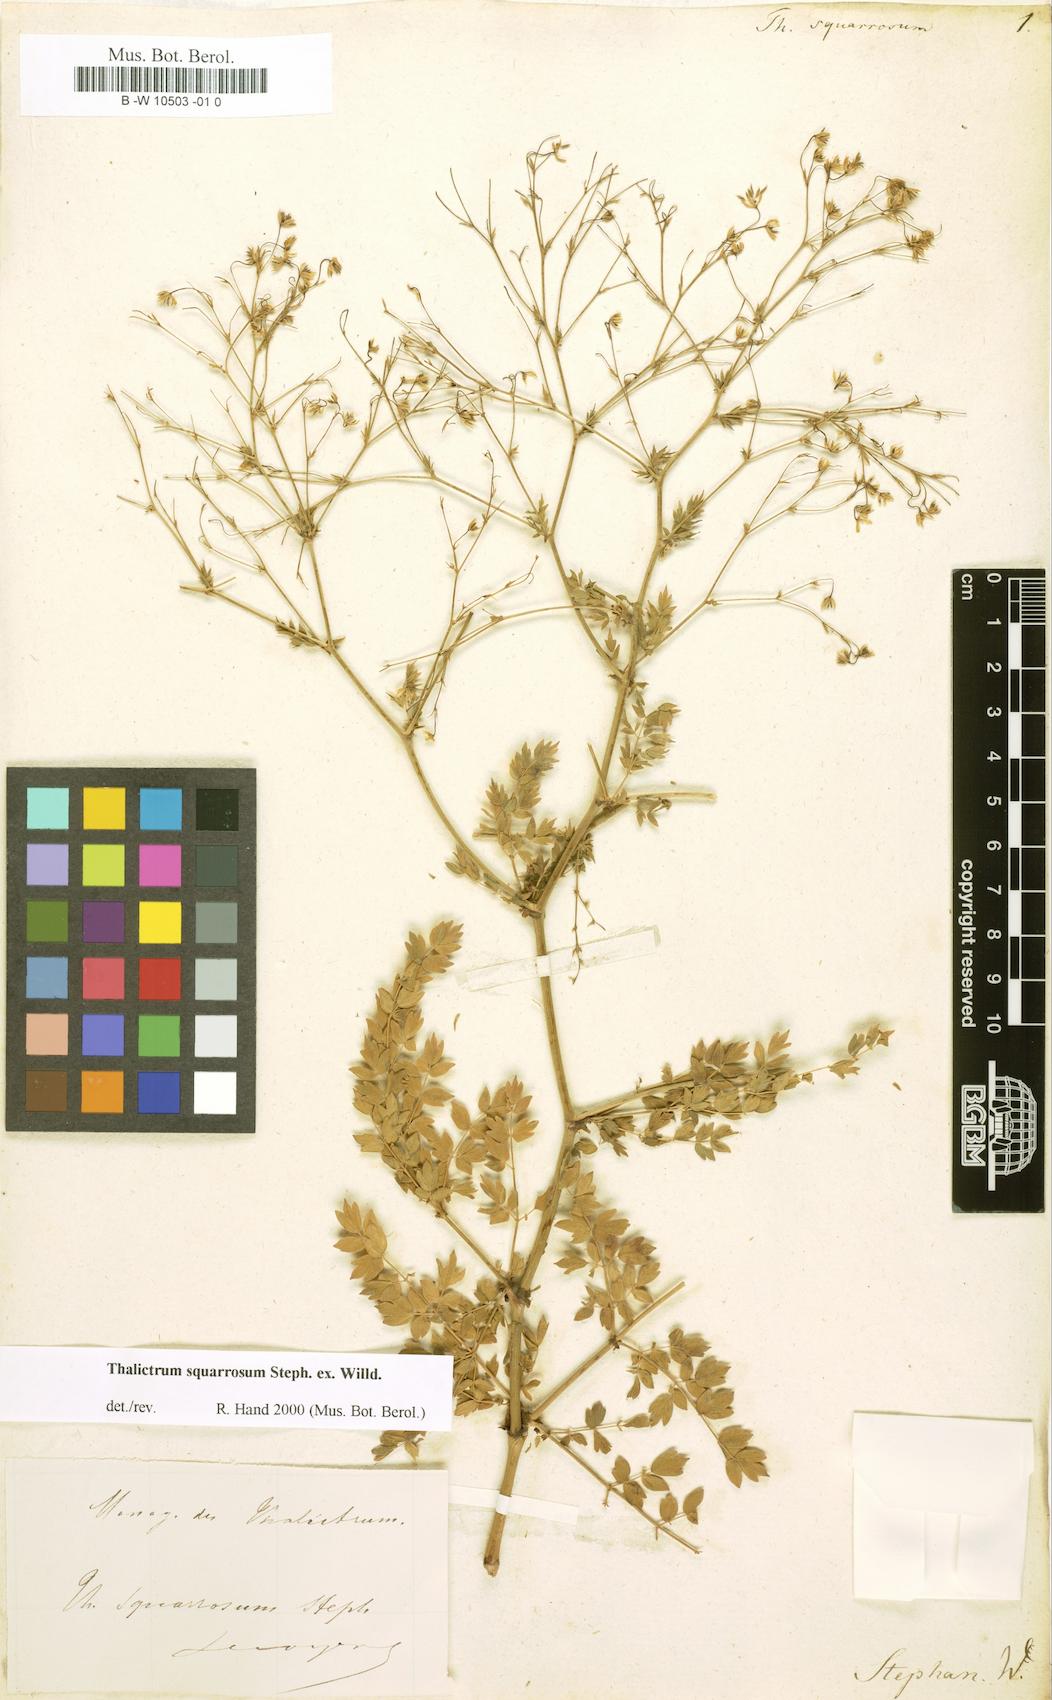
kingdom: Plantae
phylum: Tracheophyta
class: Magnoliopsida
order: Ranunculales
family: Ranunculaceae
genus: Thalictrum
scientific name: Thalictrum squarrosum
